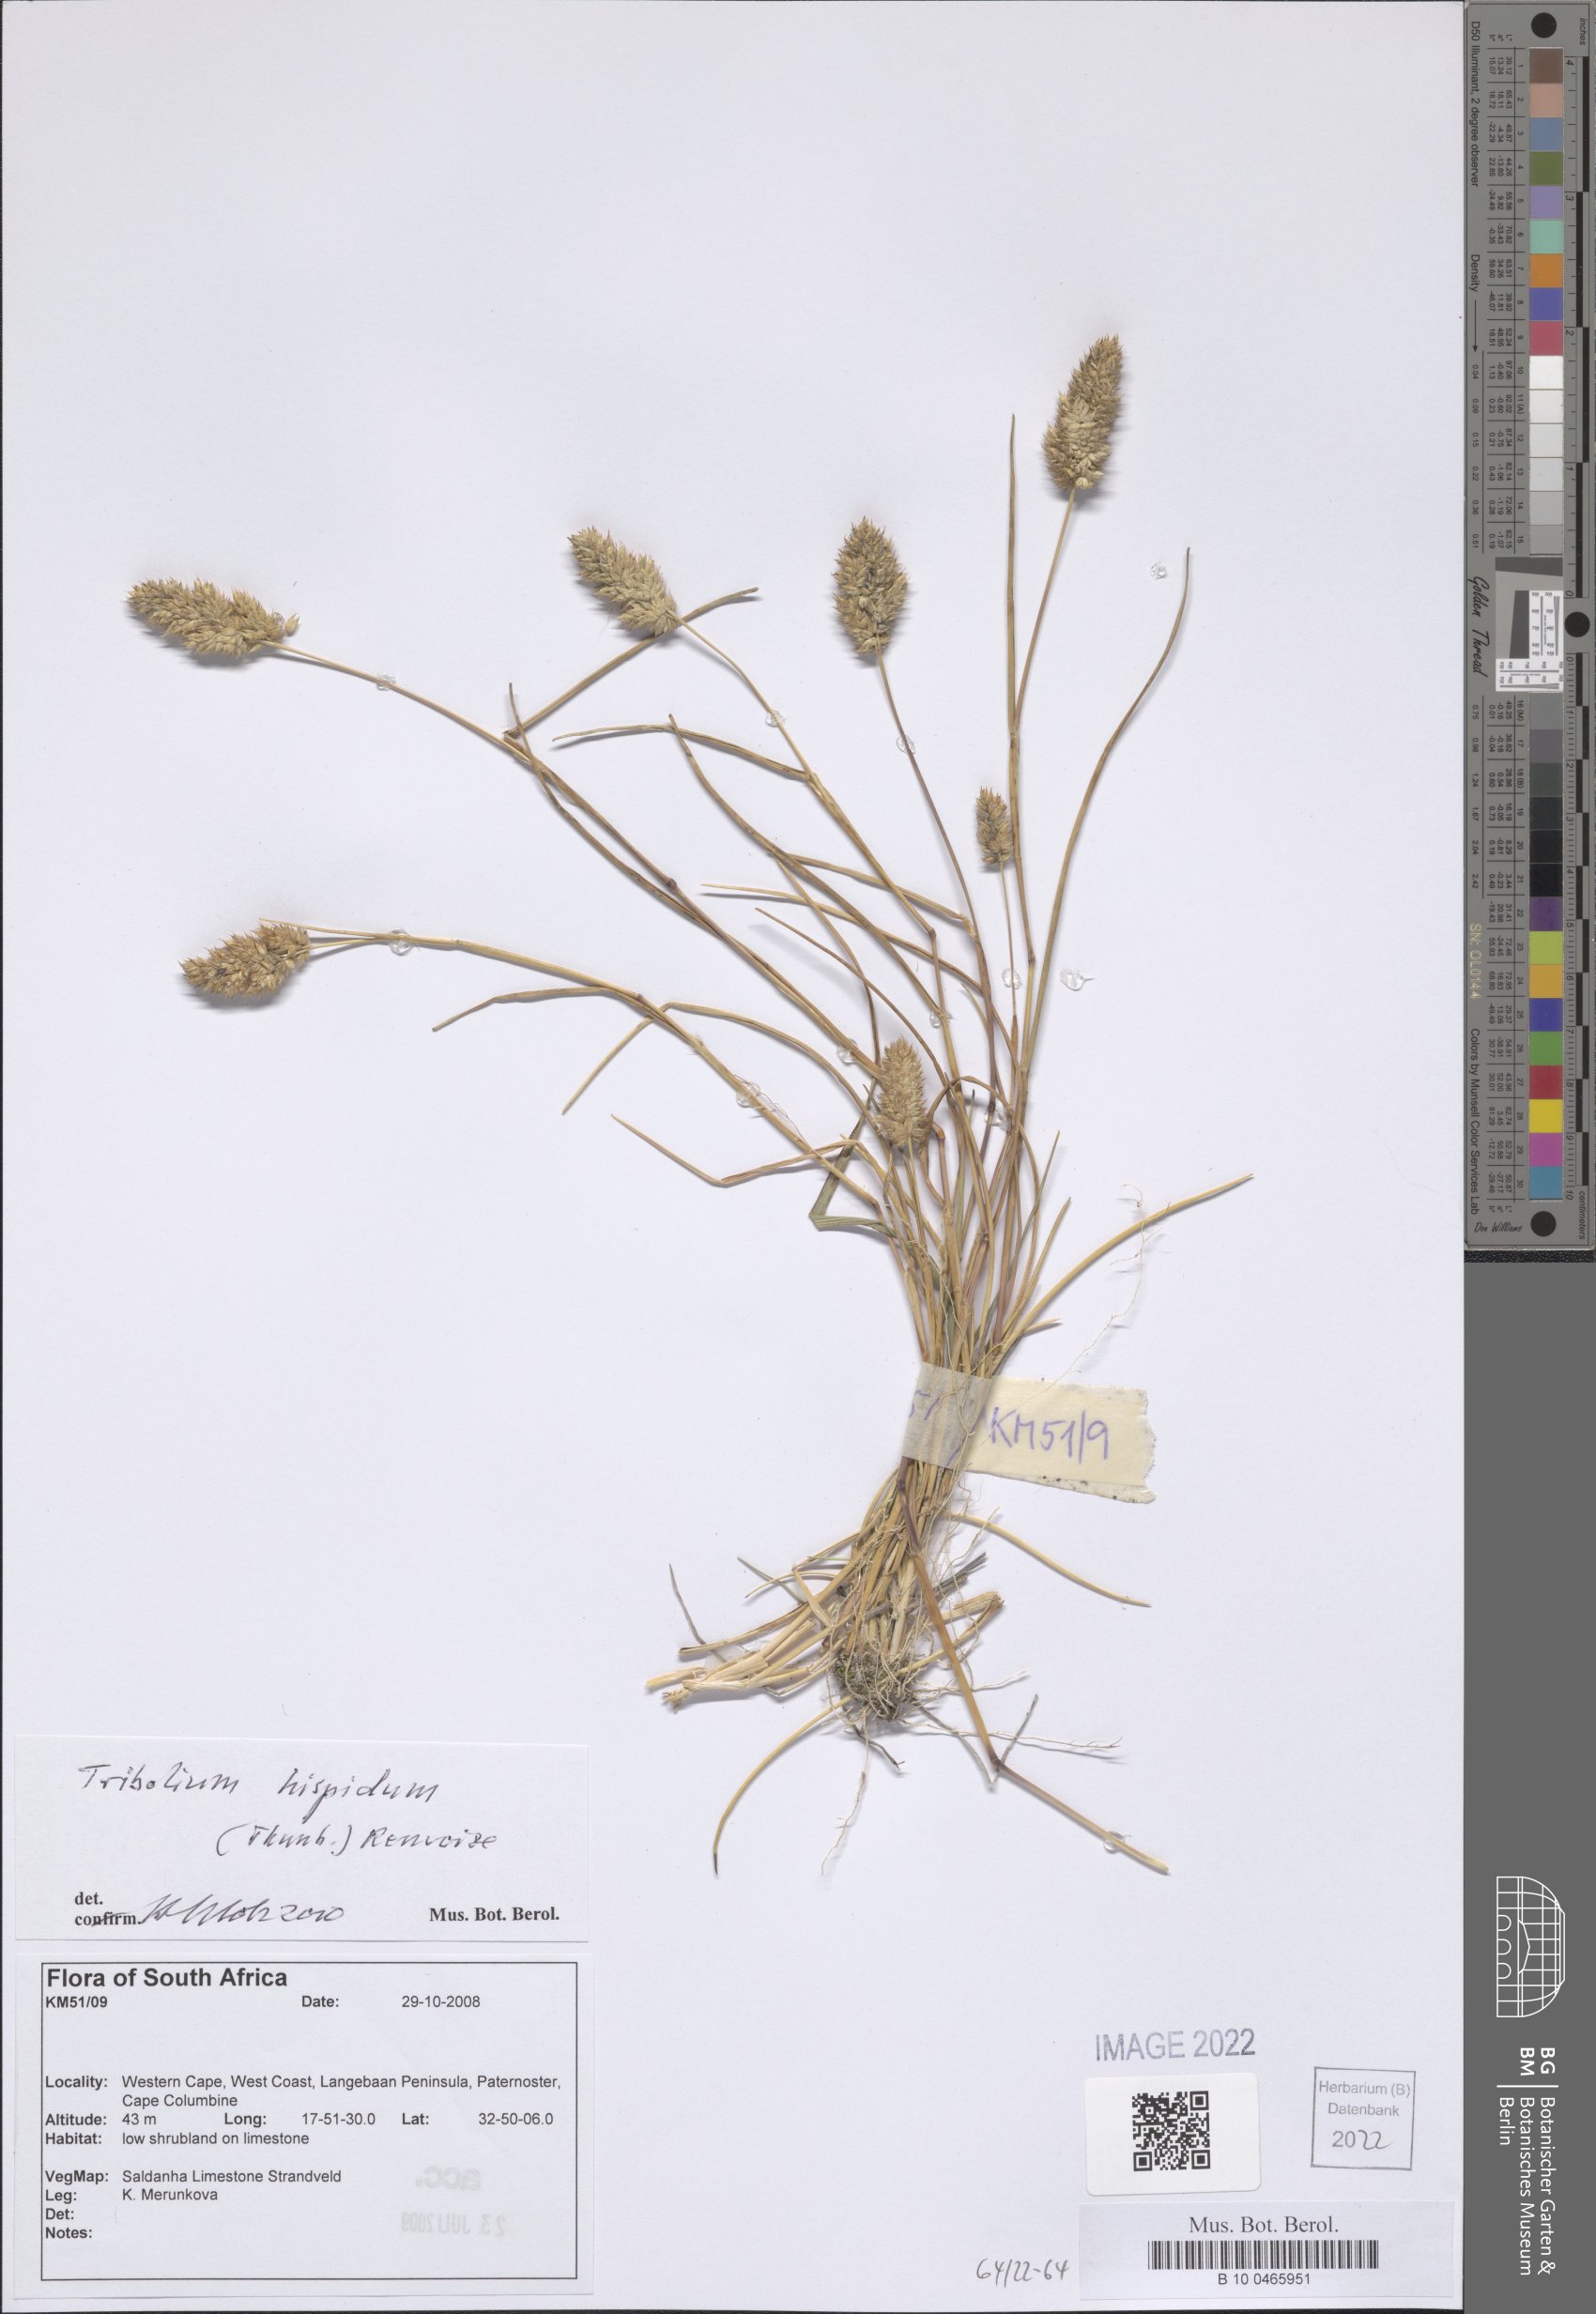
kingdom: Plantae
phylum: Tracheophyta
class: Liliopsida
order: Poales
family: Poaceae
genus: Tribolium
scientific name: Tribolium hispidum
